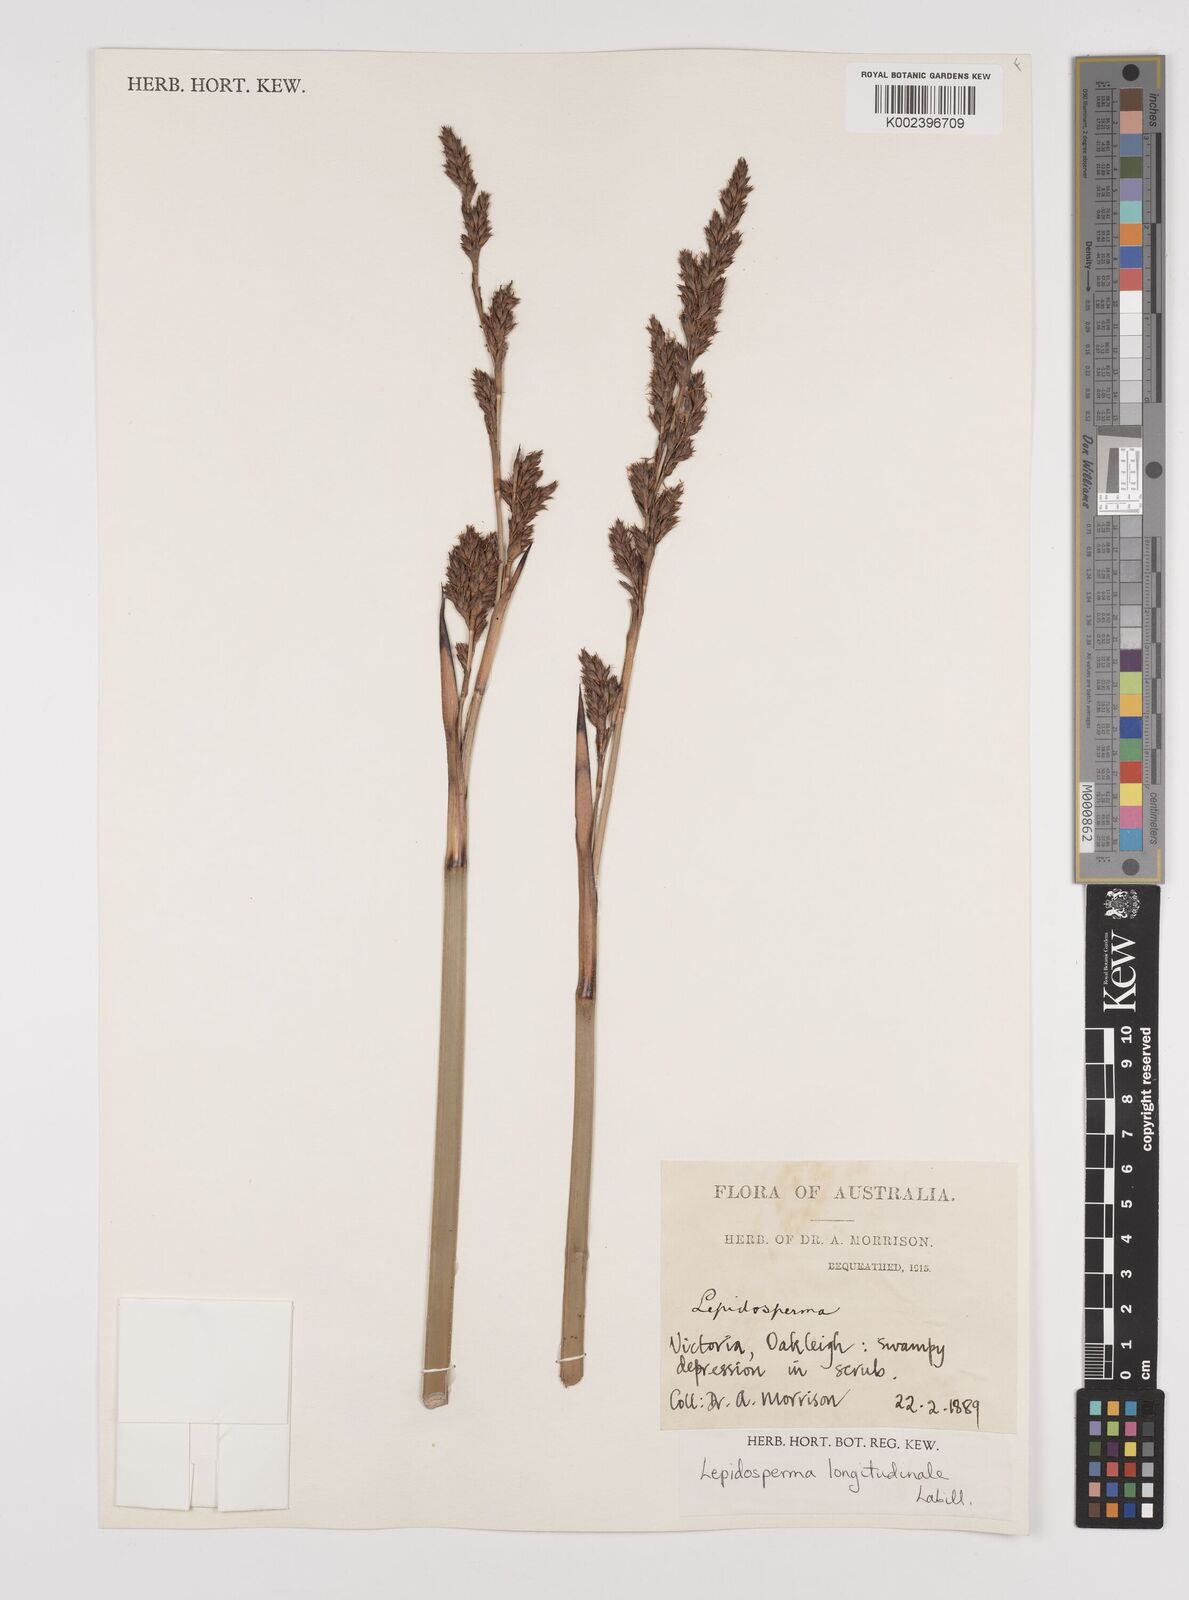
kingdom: Plantae
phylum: Tracheophyta
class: Liliopsida
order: Poales
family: Cyperaceae
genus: Lepidosperma
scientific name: Lepidosperma longitudinale
